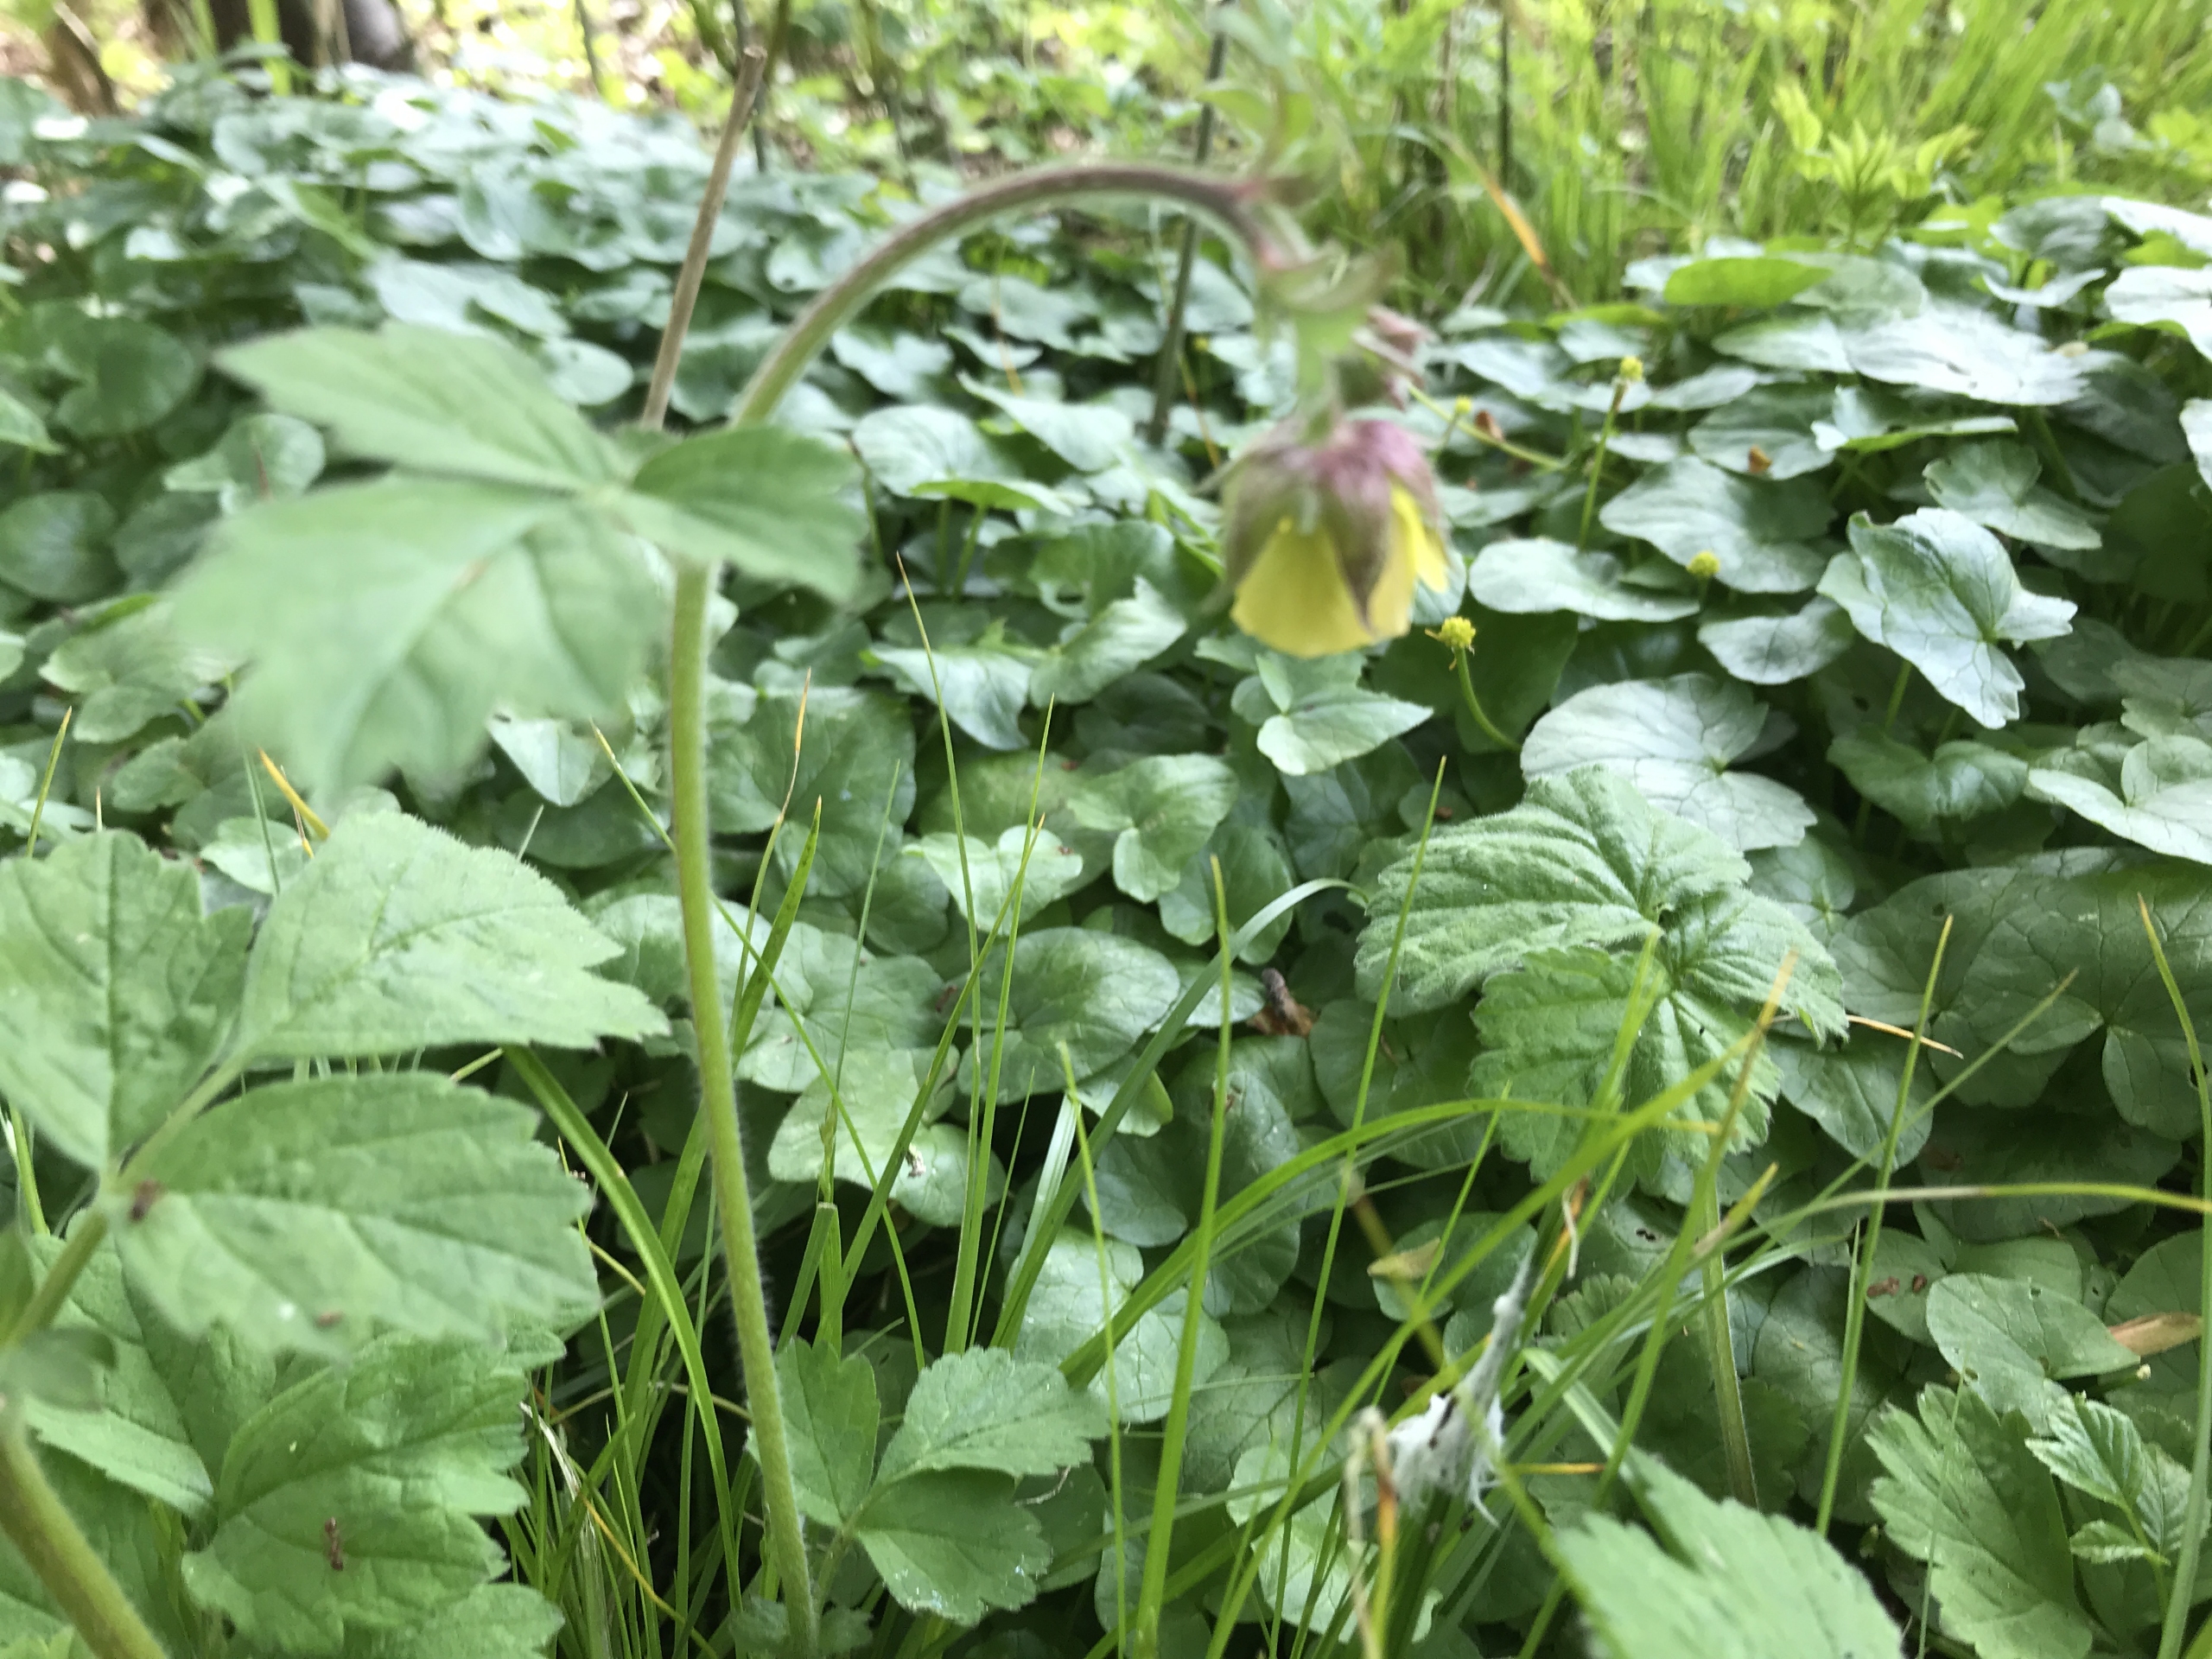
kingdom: Plantae
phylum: Tracheophyta
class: Magnoliopsida
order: Rosales
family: Rosaceae
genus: Geum
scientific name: Geum
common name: Høj nellikerod
